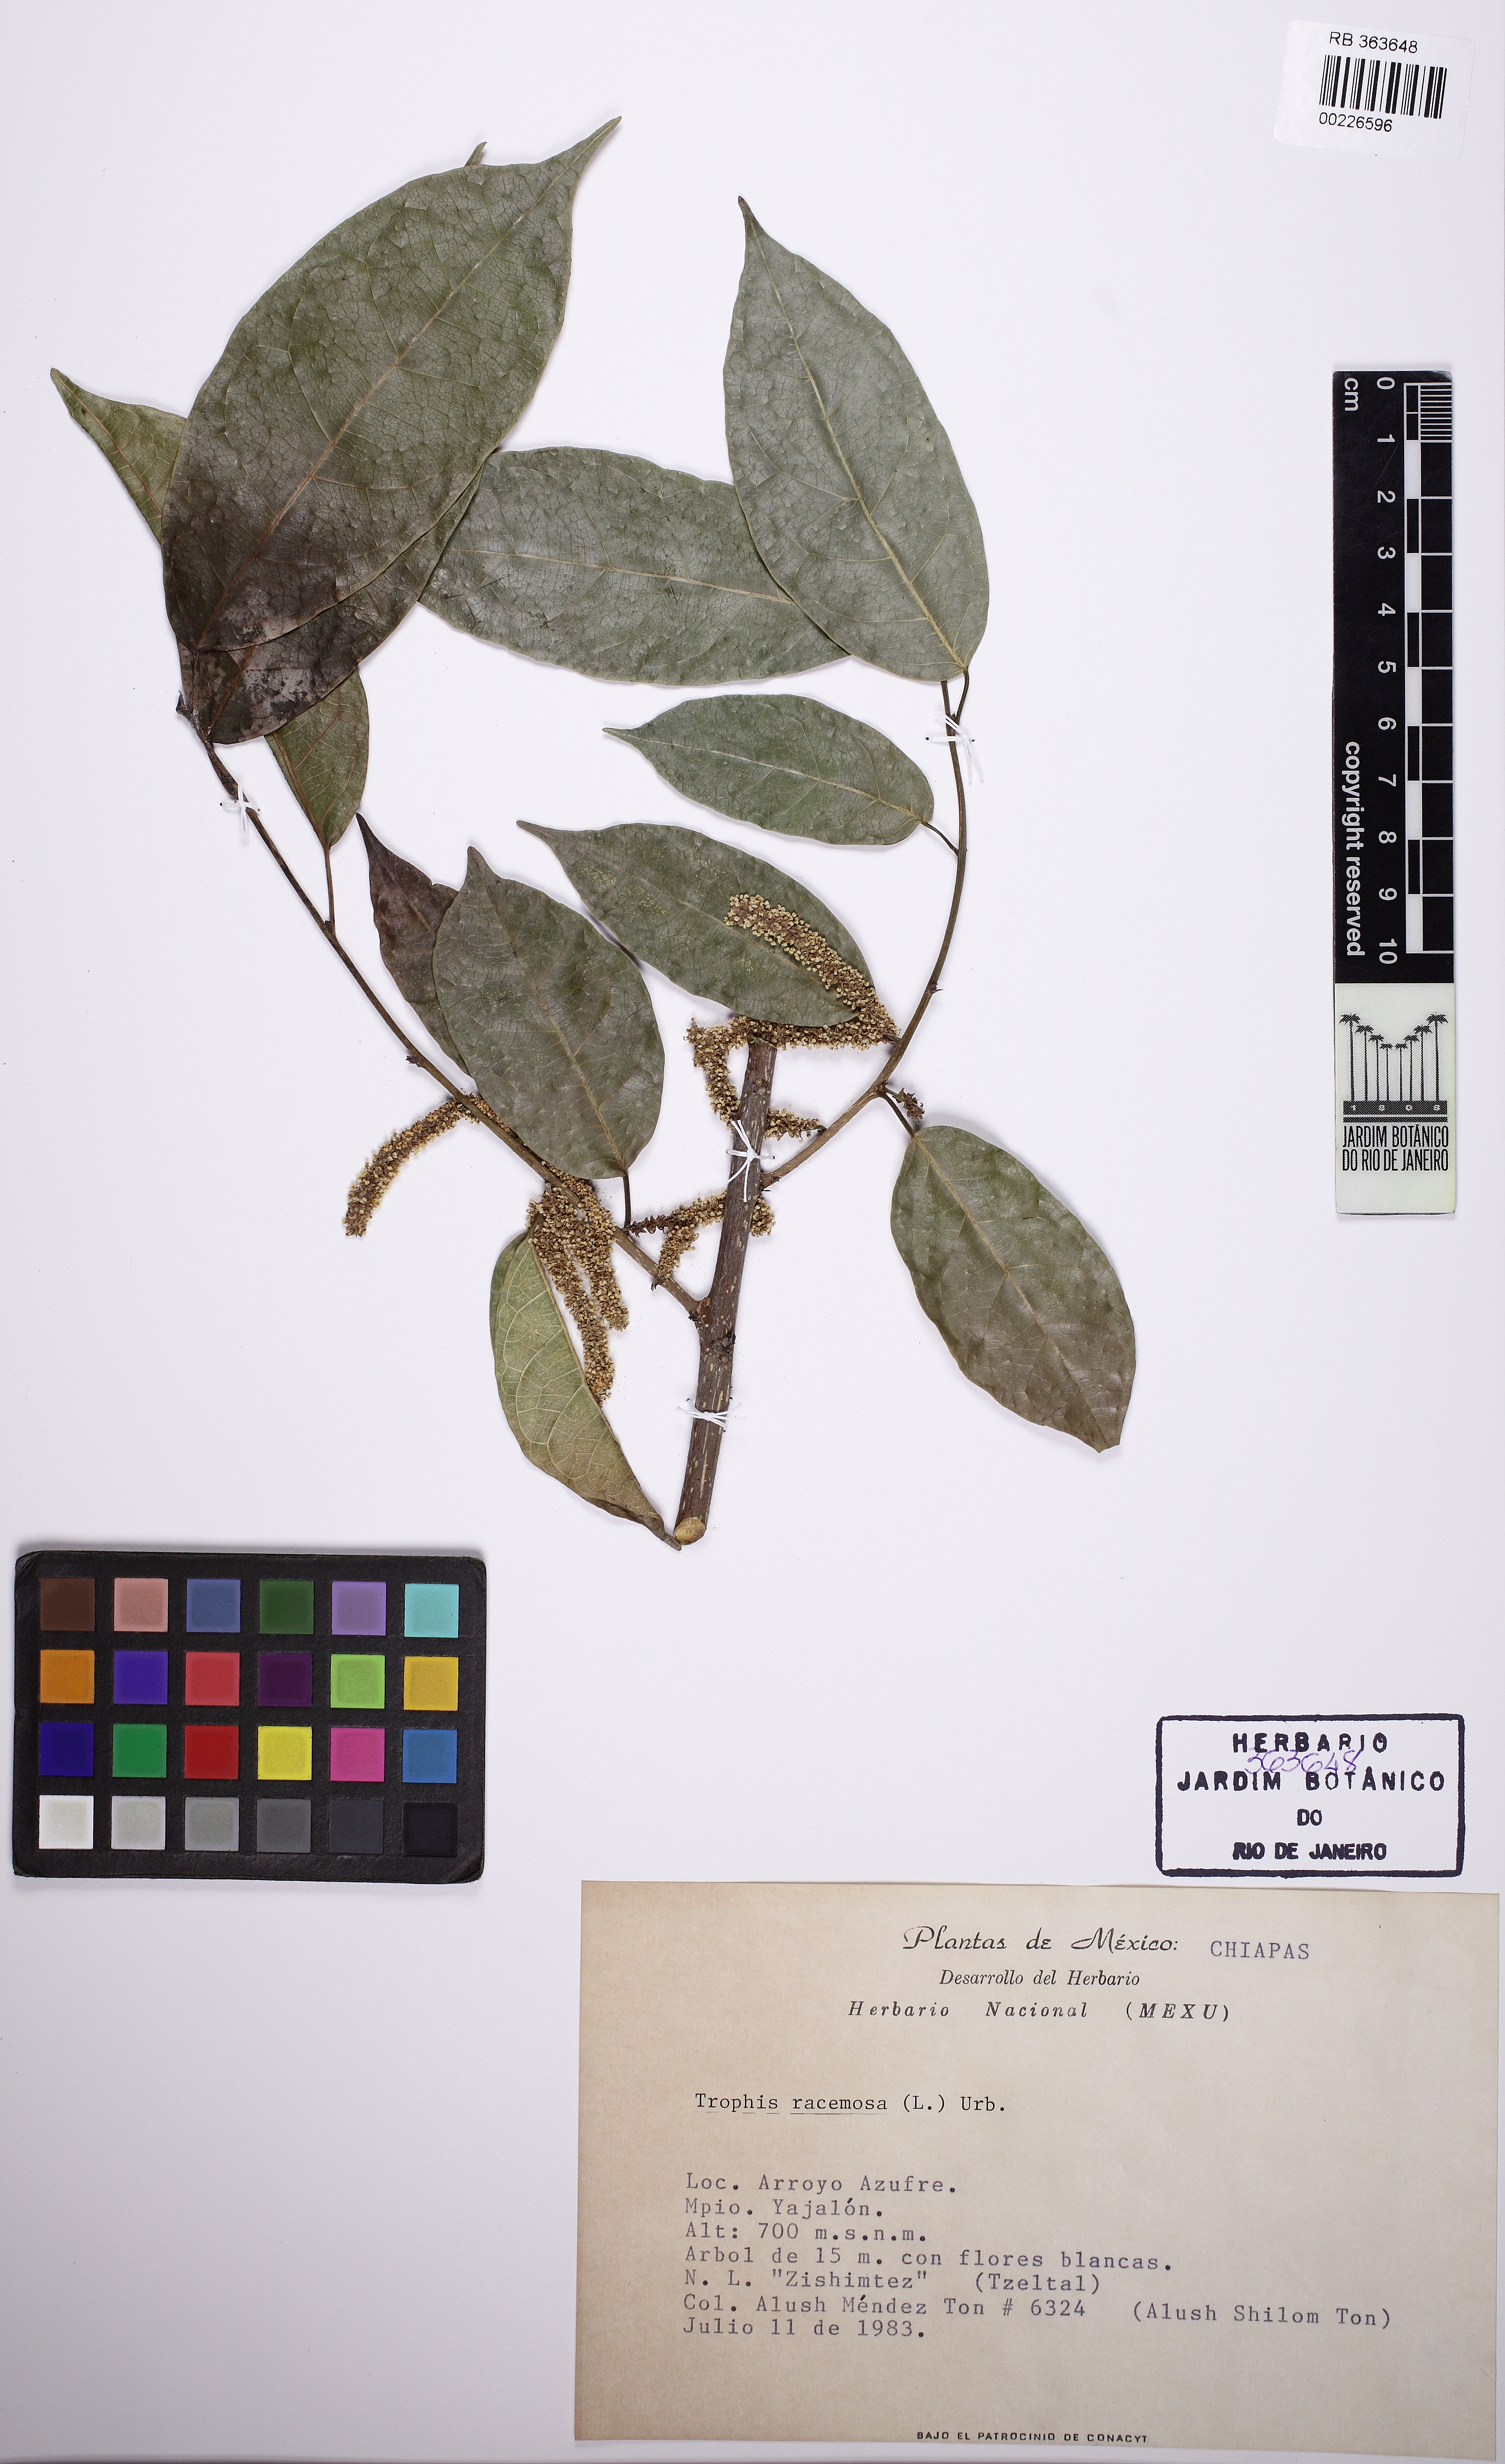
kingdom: Plantae
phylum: Tracheophyta
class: Magnoliopsida
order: Rosales
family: Moraceae
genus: Trophis
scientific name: Trophis racemosa
